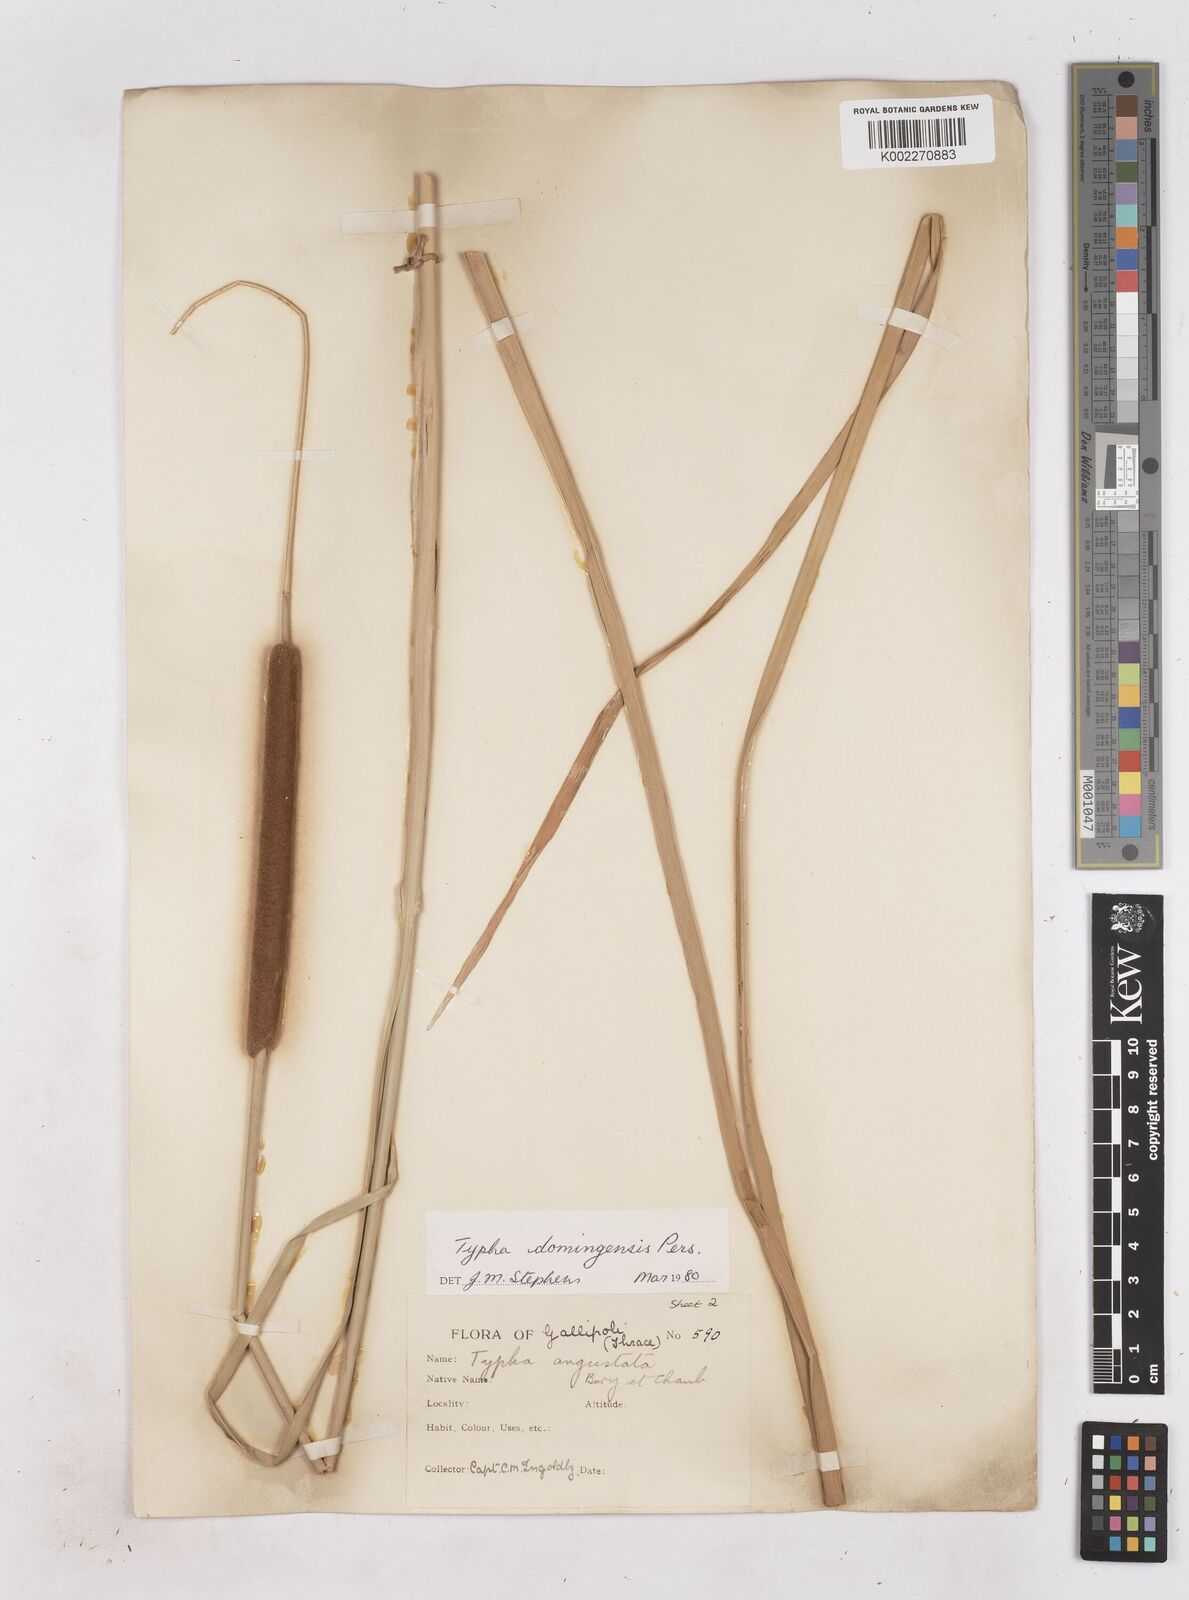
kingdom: Plantae
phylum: Tracheophyta
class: Liliopsida
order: Poales
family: Typhaceae
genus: Typha
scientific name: Typha domingensis
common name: Southern cattail
